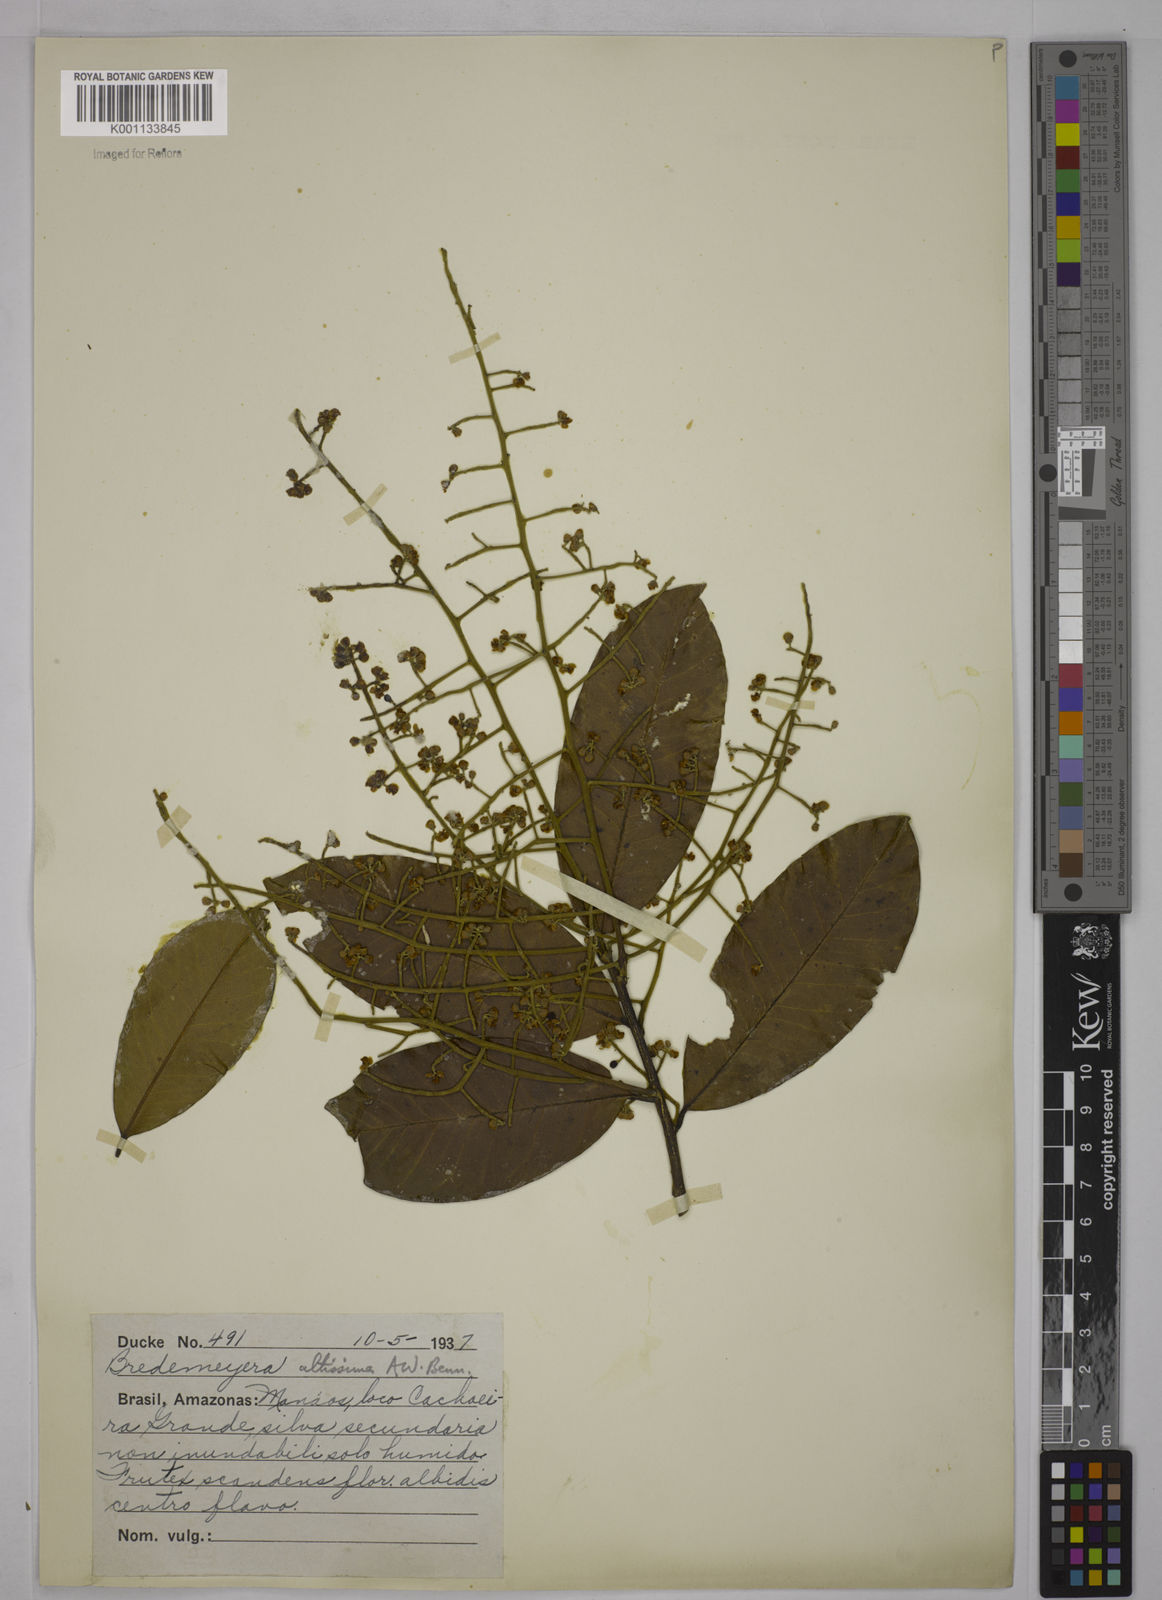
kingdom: Plantae
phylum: Tracheophyta
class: Magnoliopsida
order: Fabales
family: Polygalaceae
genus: Bredemeyera
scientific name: Bredemeyera divaricata
